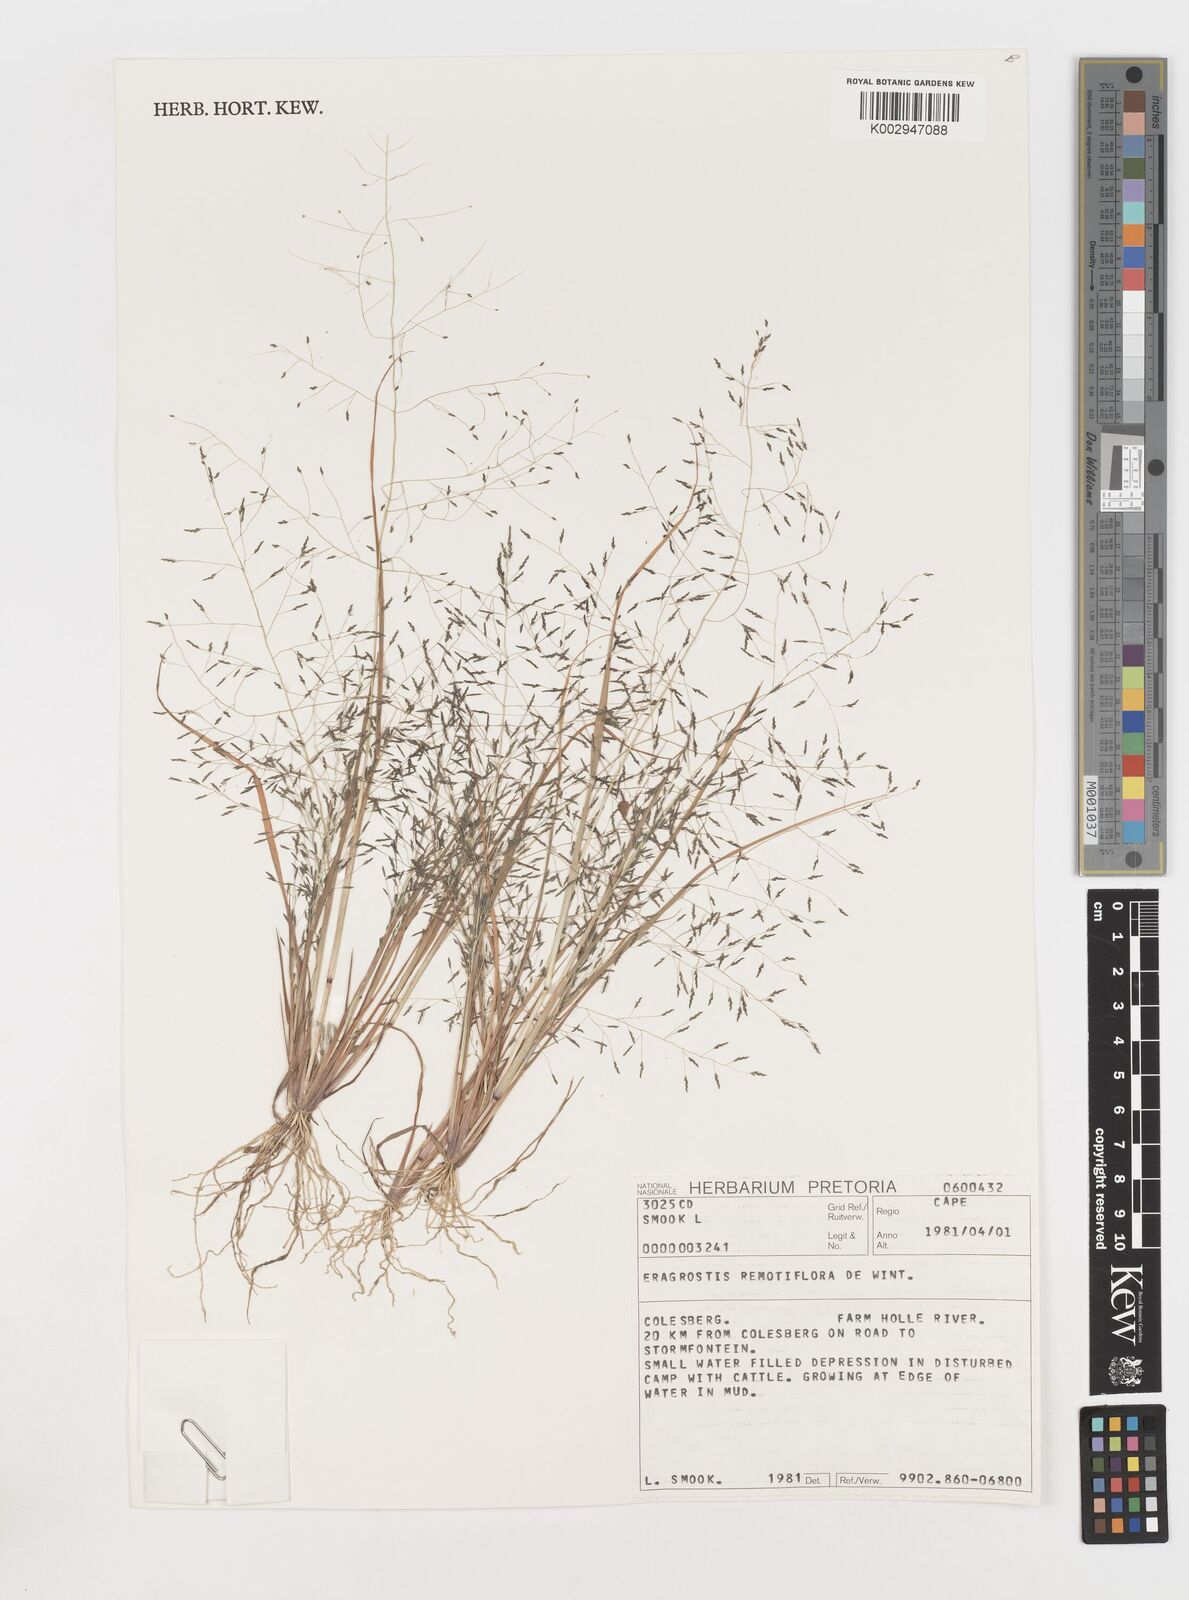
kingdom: Plantae
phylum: Tracheophyta
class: Liliopsida
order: Poales
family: Poaceae
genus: Eragrostis
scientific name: Eragrostis remotiflora
